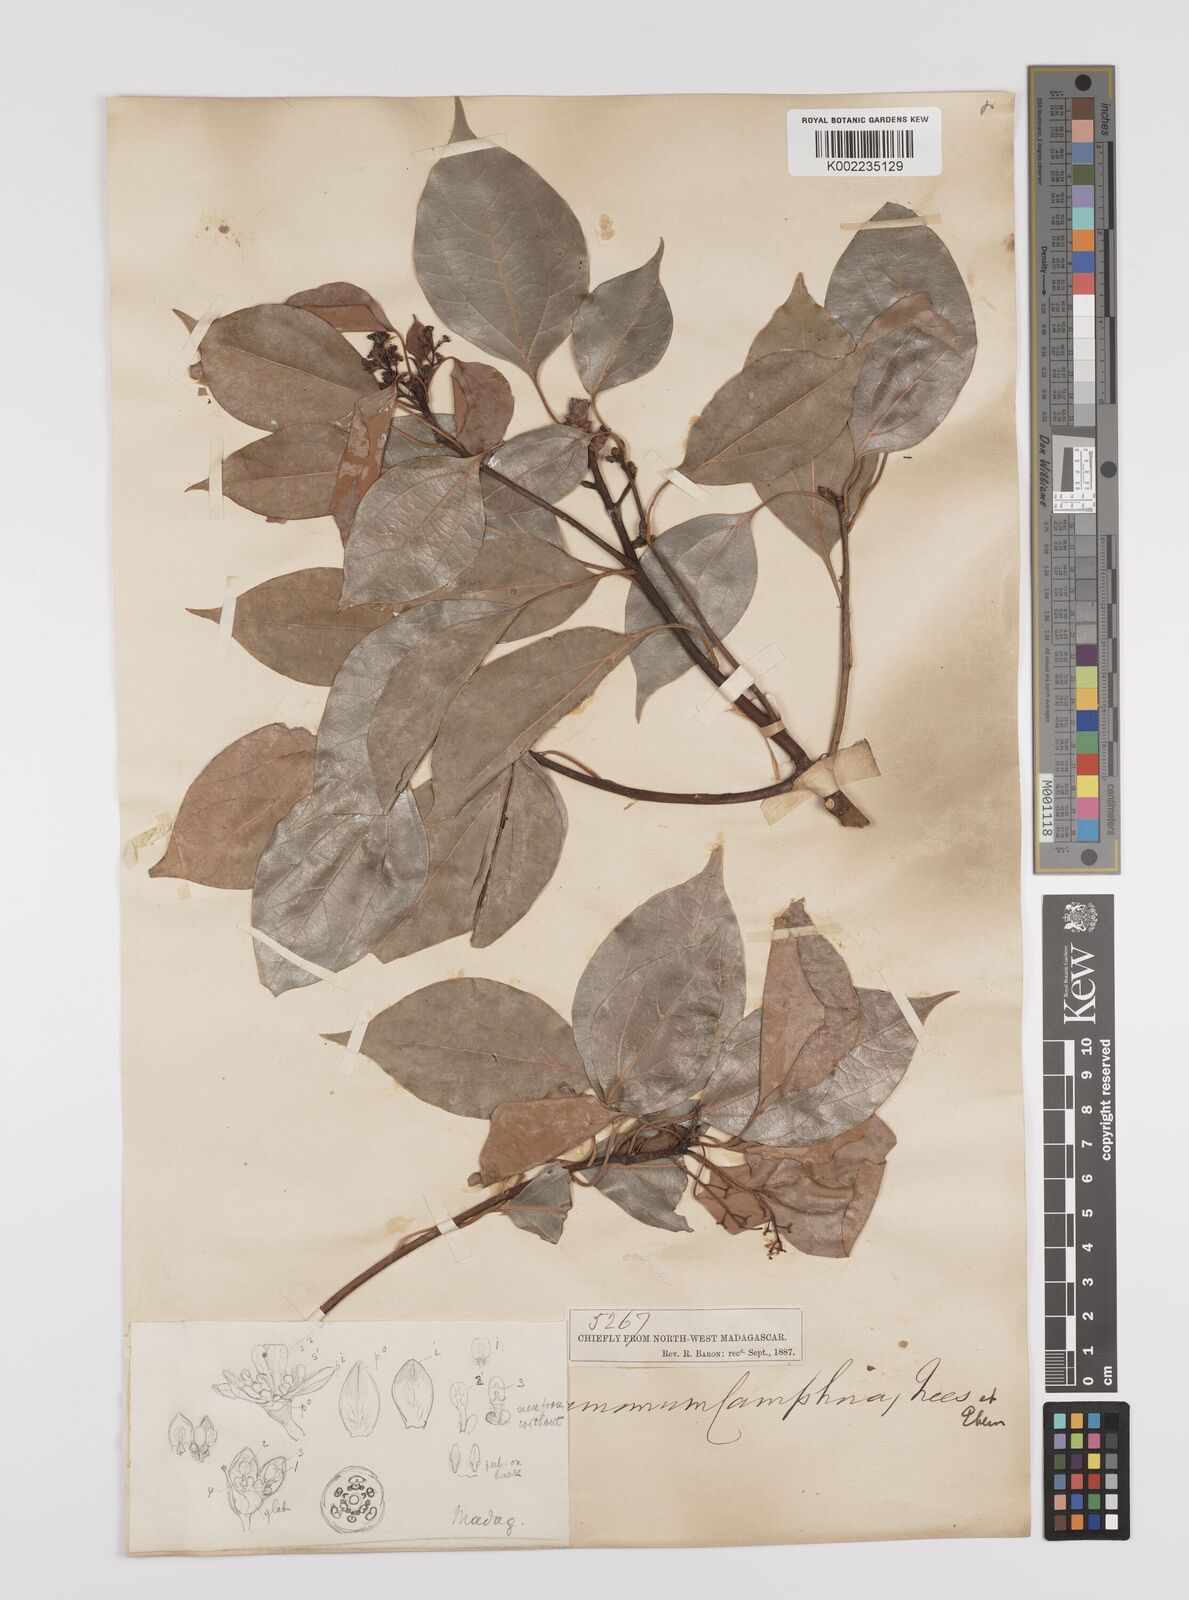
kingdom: Plantae
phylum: Tracheophyta
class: Magnoliopsida
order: Laurales
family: Lauraceae
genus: Cinnamomum
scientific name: Cinnamomum camphora
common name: Camphortree
